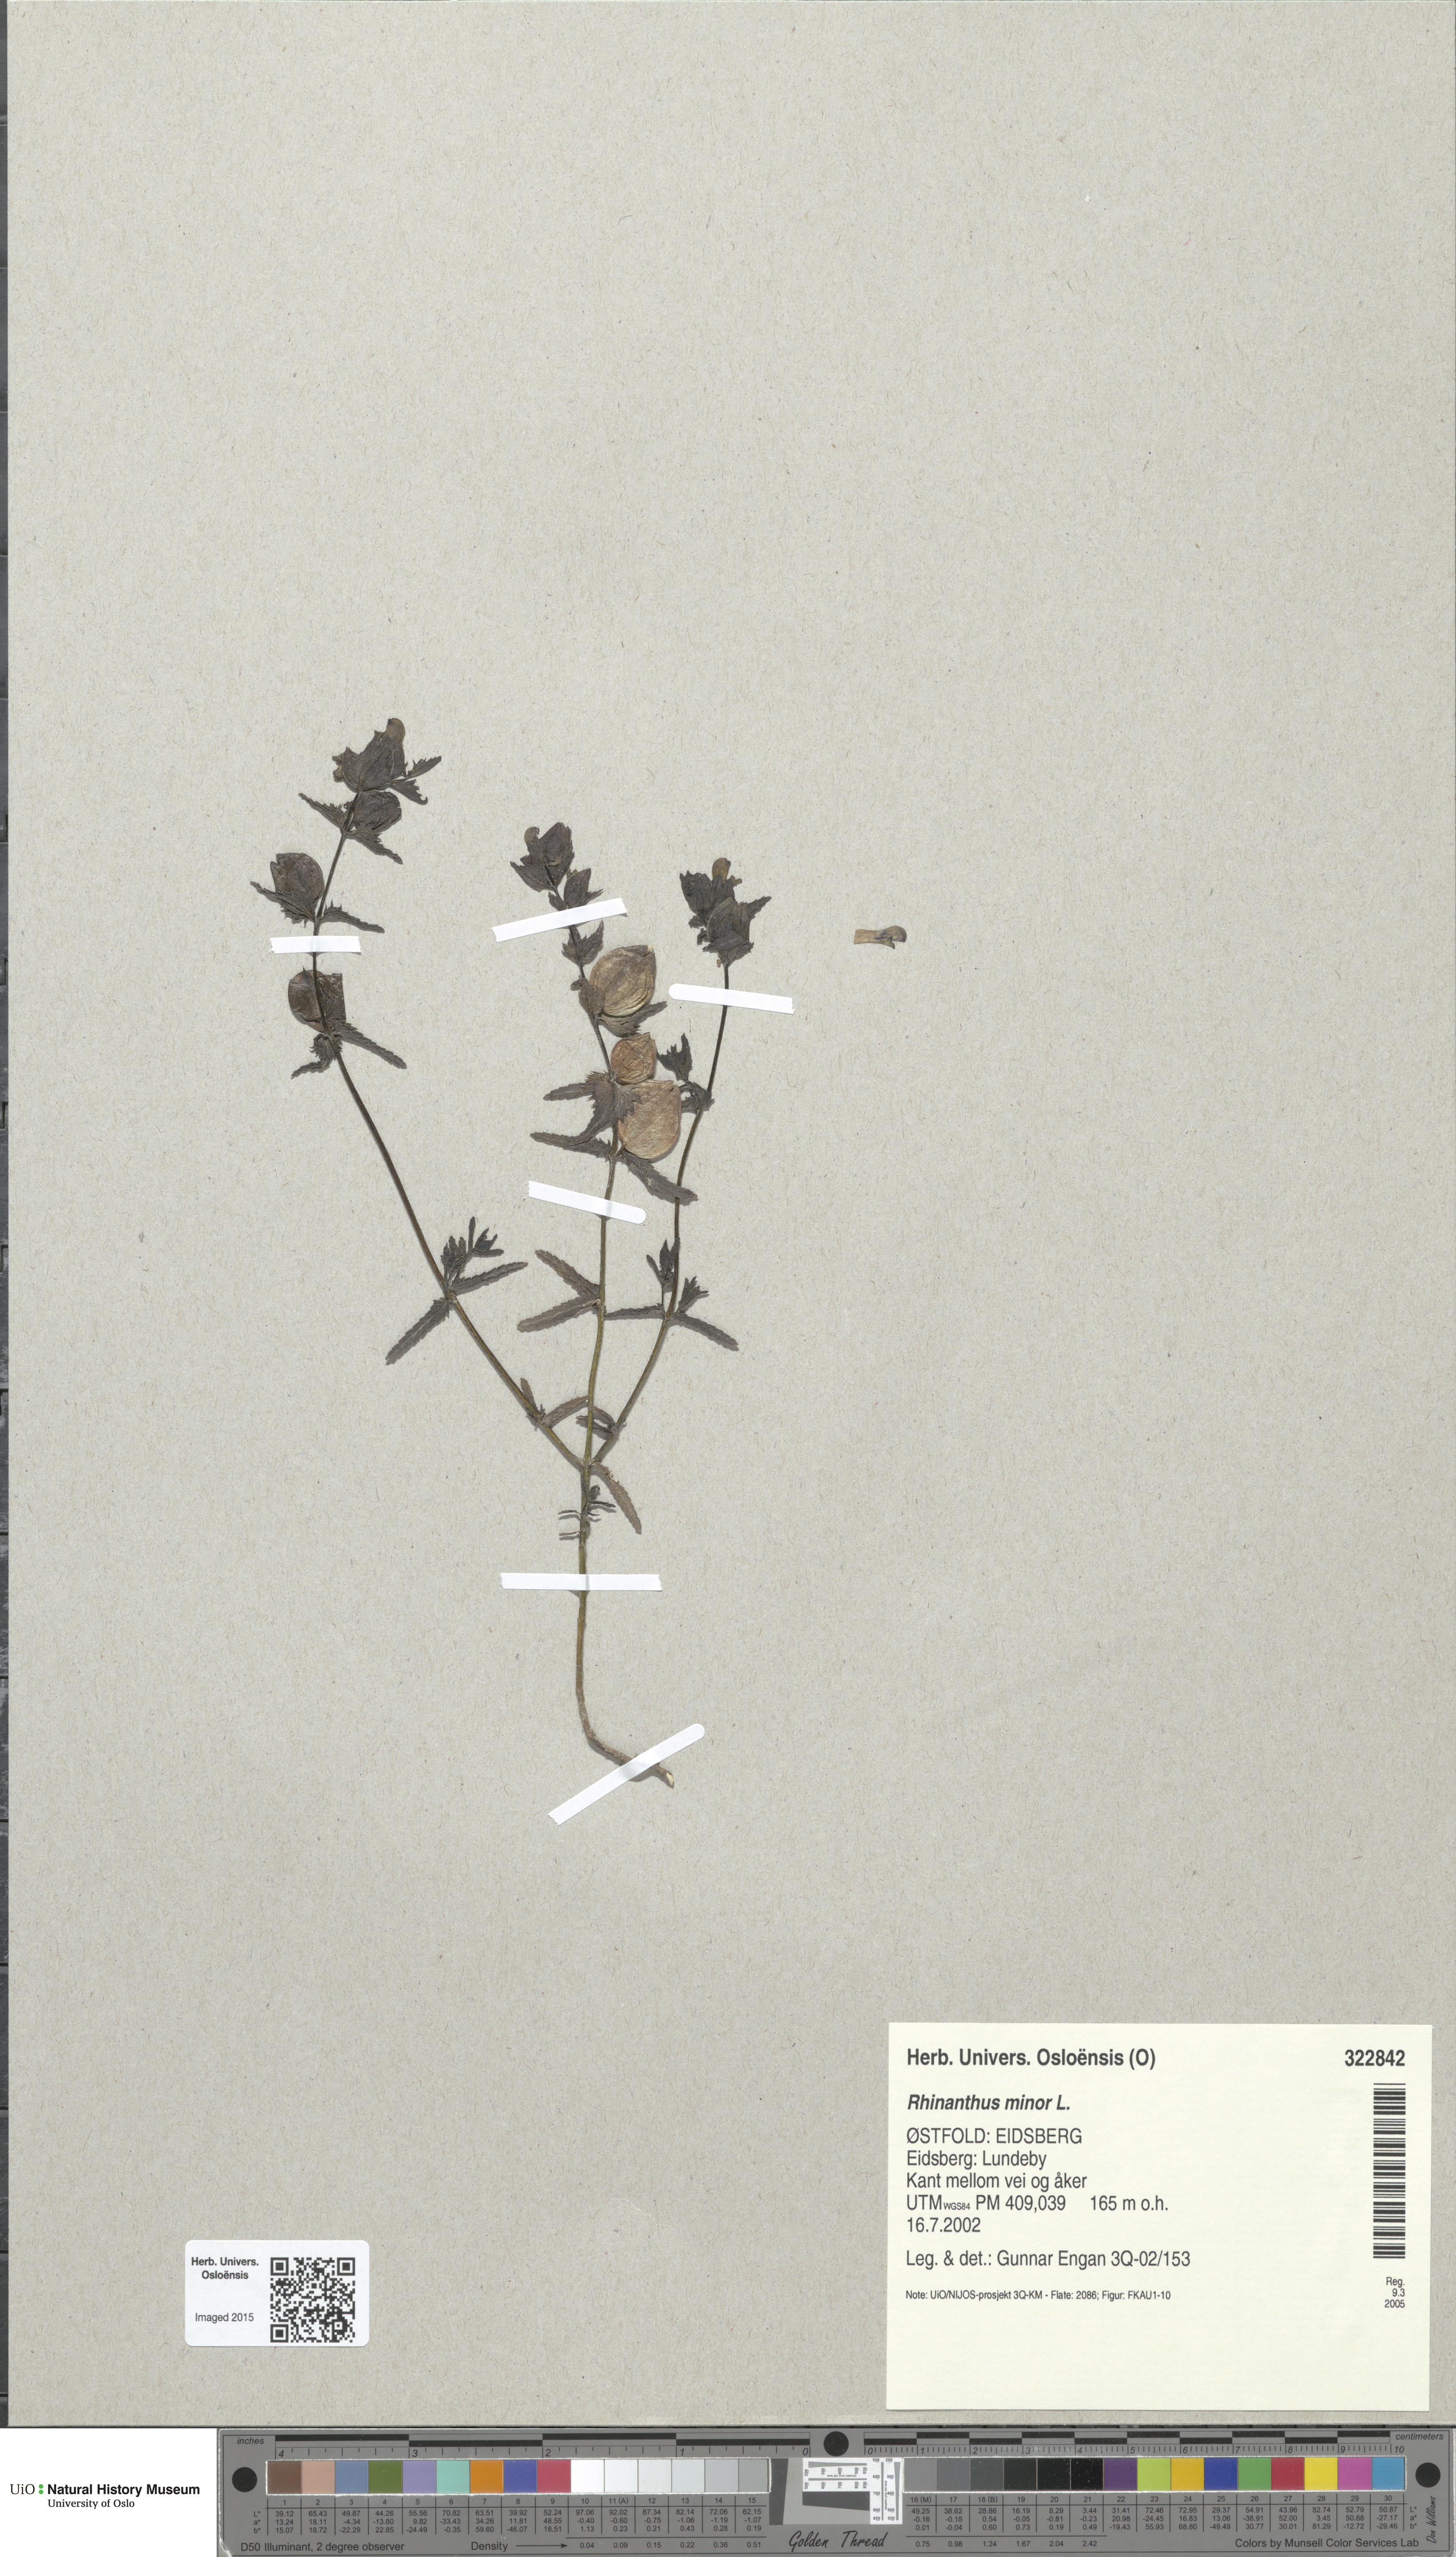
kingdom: Plantae
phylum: Tracheophyta
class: Magnoliopsida
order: Lamiales
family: Orobanchaceae
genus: Rhinanthus
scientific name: Rhinanthus minor
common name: Yellow-rattle
